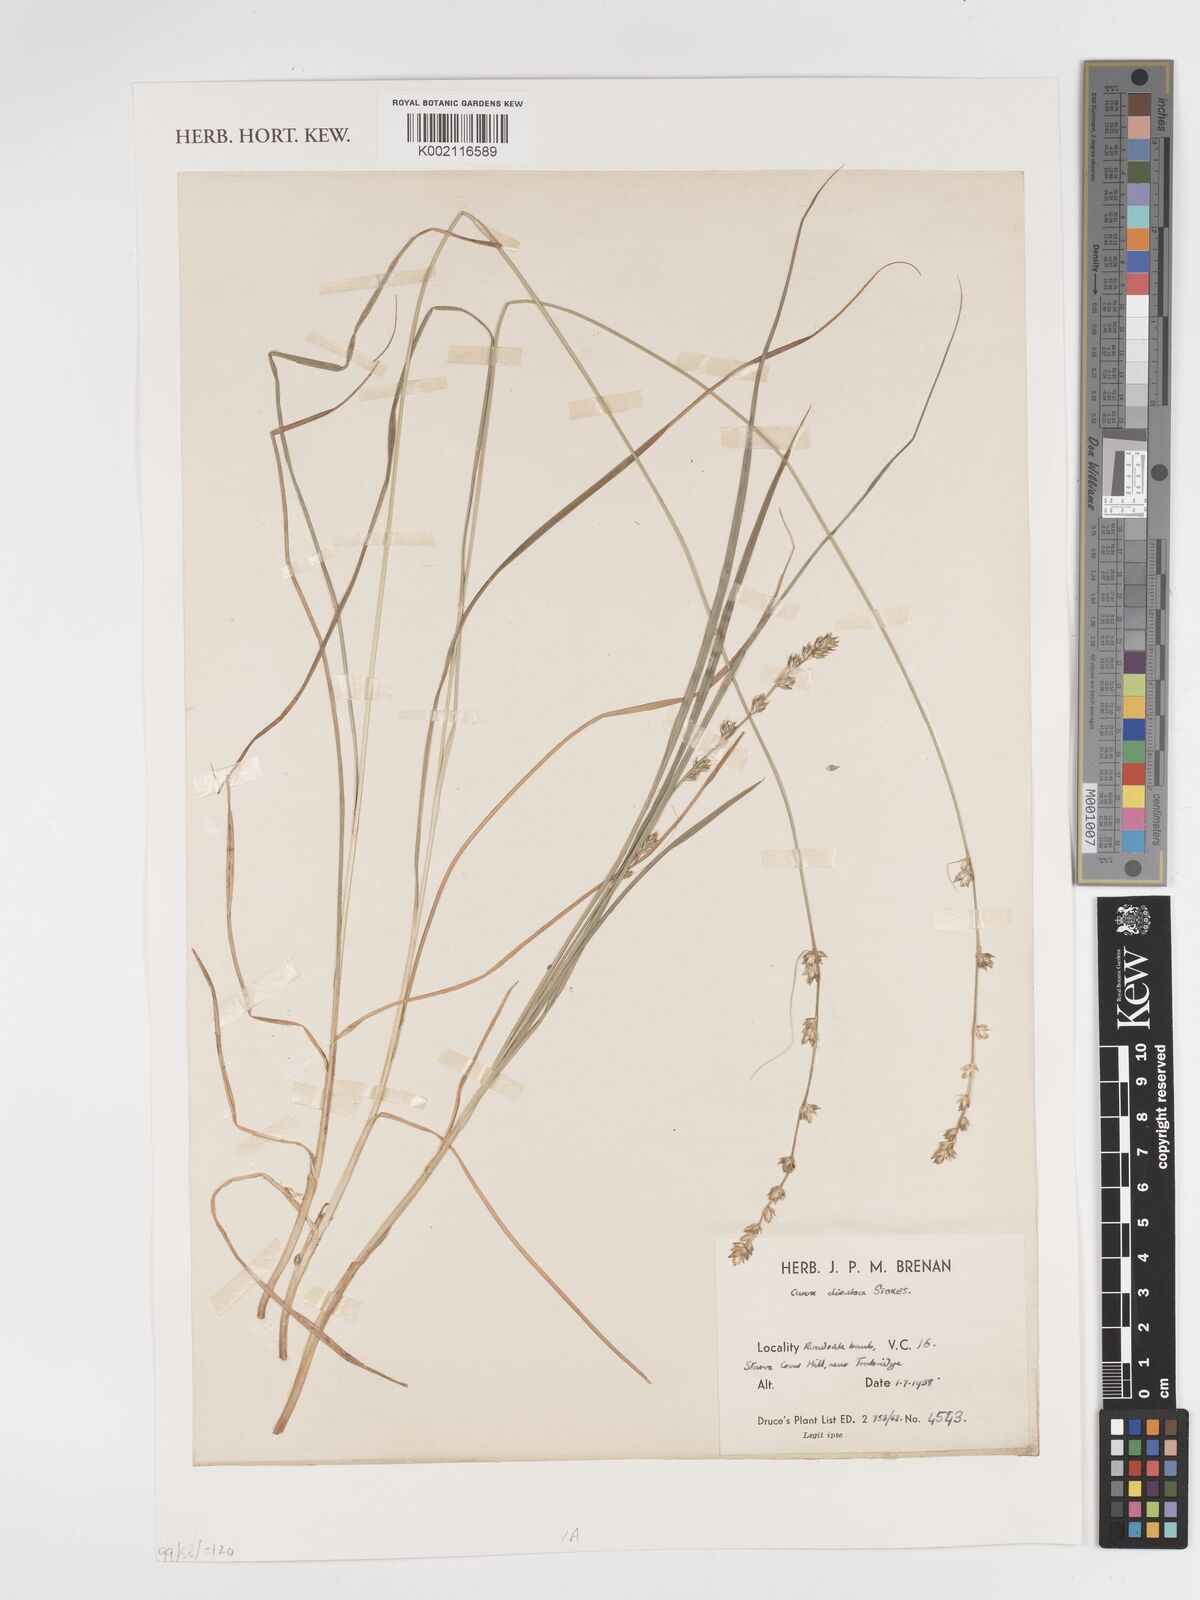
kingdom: Plantae
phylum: Tracheophyta
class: Liliopsida
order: Poales
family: Cyperaceae
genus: Carex
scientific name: Carex divulsa
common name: Grassland sedge
